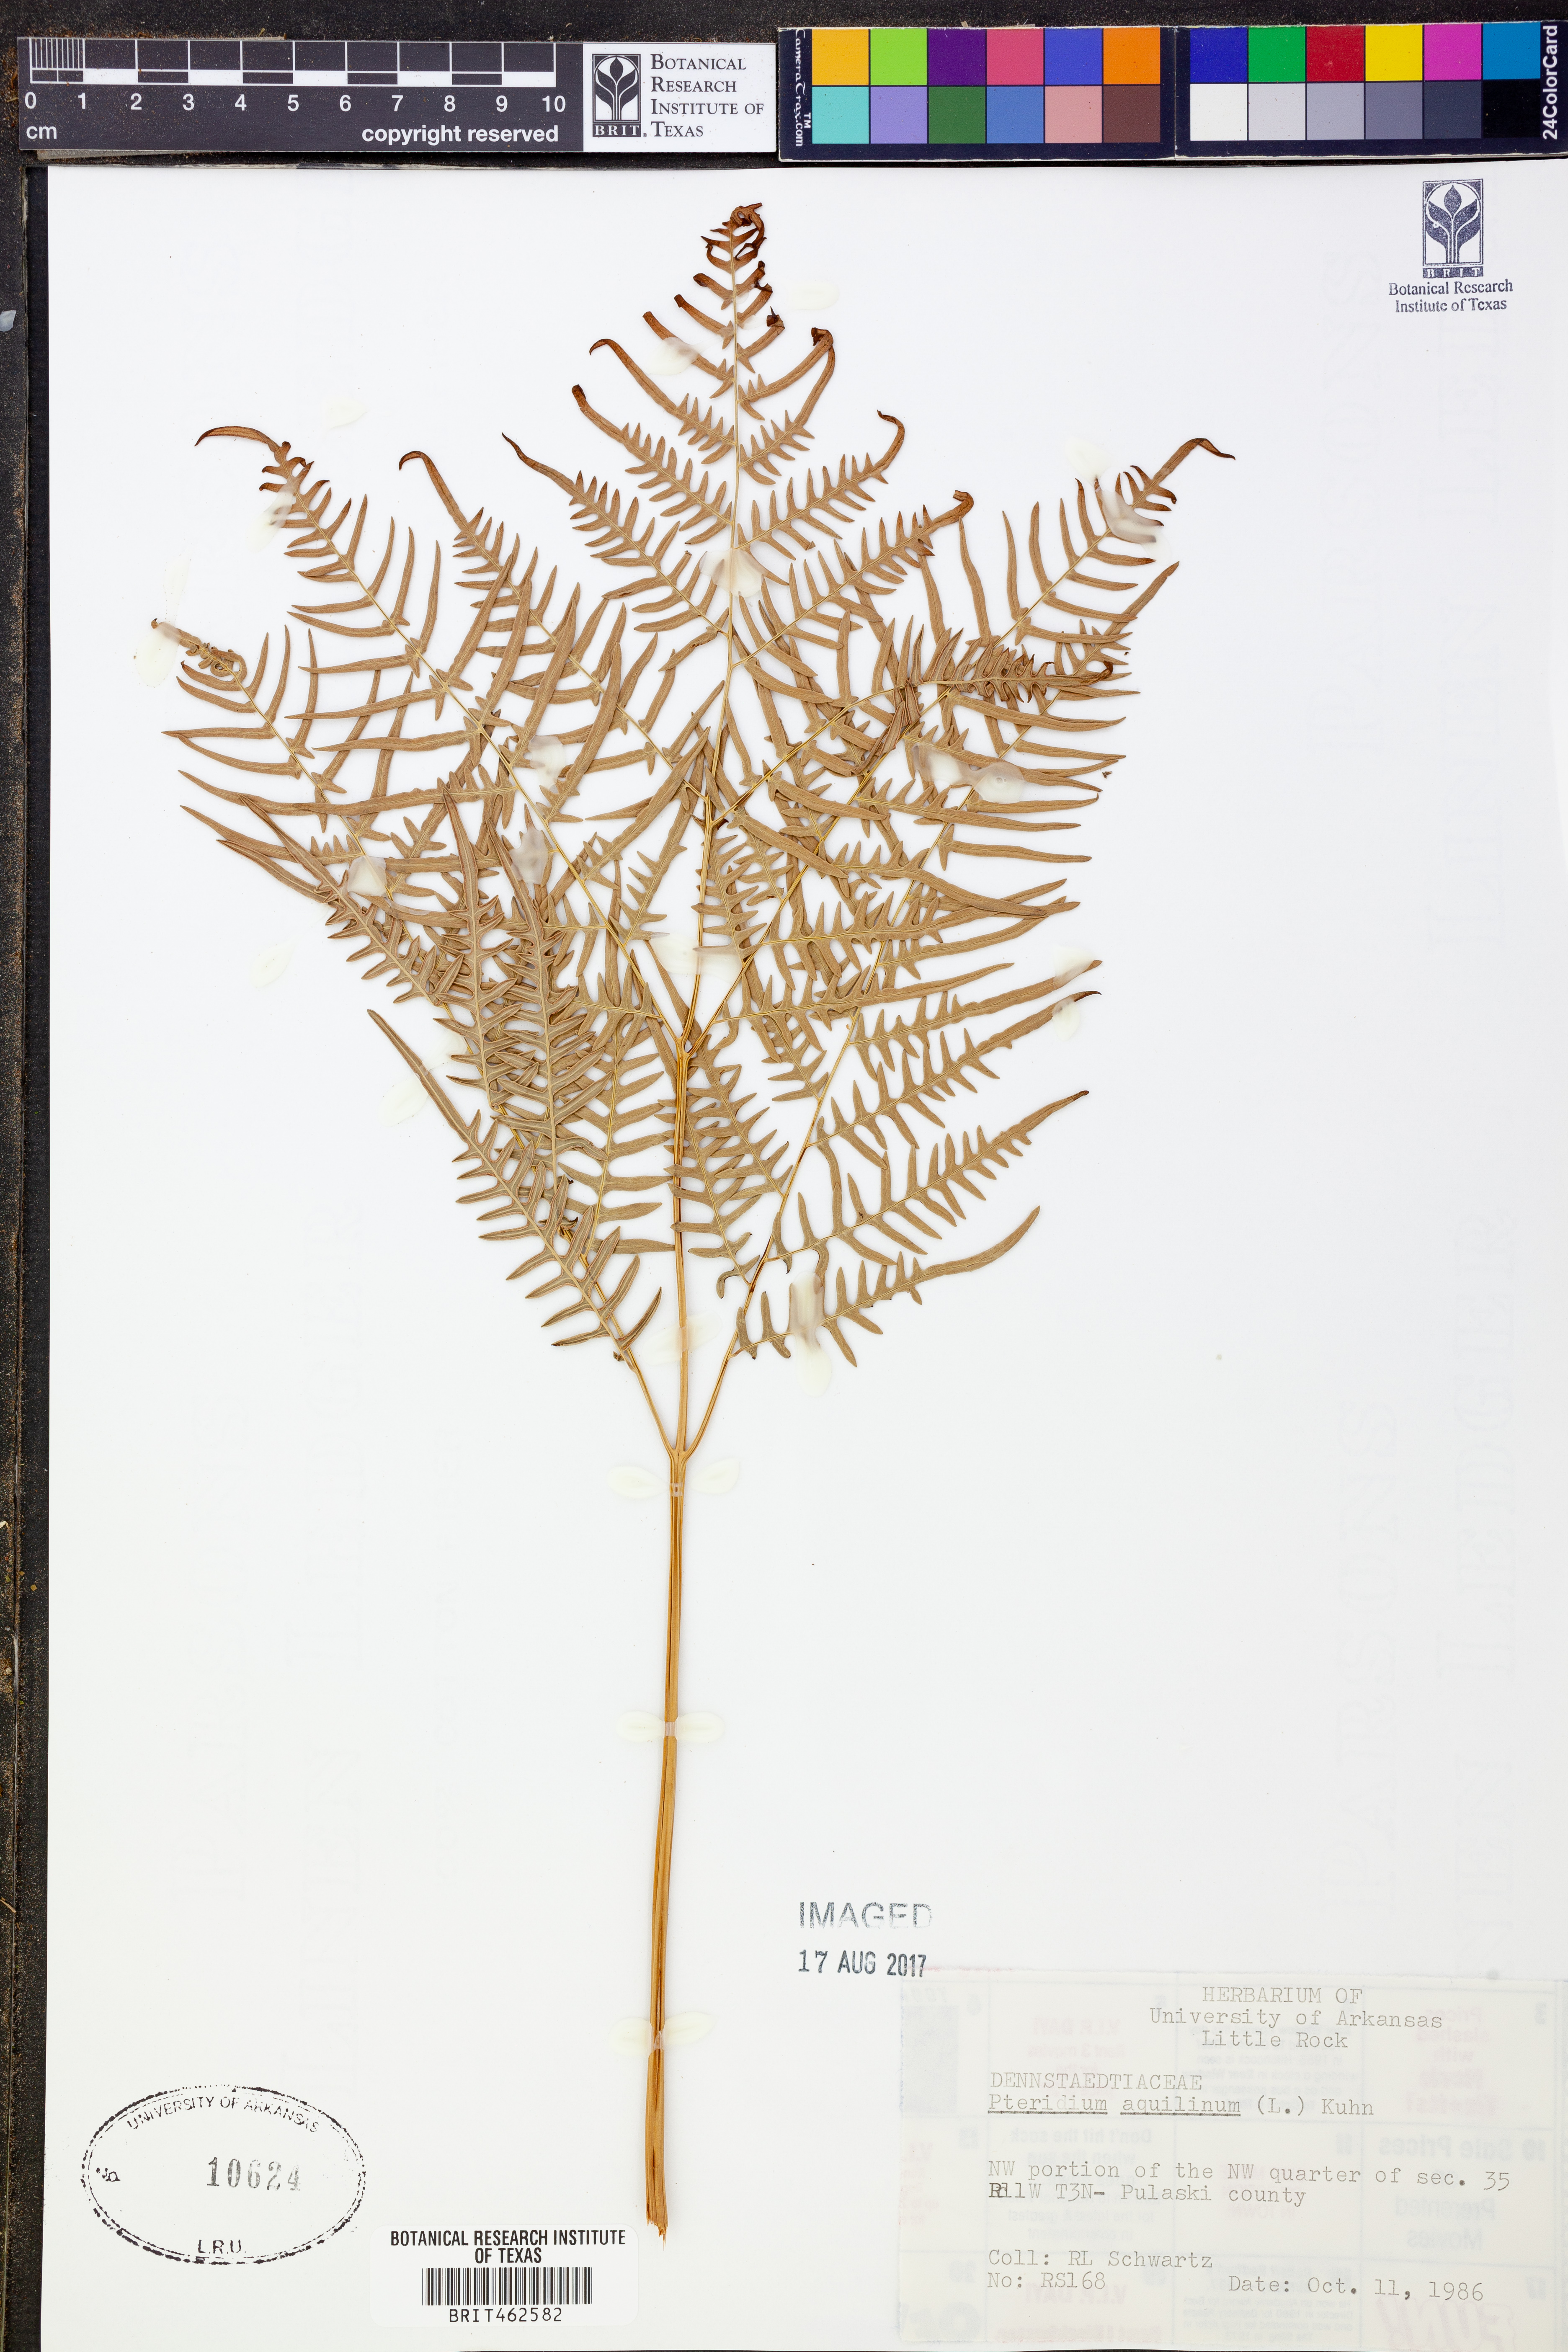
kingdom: Plantae
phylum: Tracheophyta
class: Polypodiopsida
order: Polypodiales
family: Dennstaedtiaceae
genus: Pteridium
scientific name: Pteridium aquilinum
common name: Bracken
